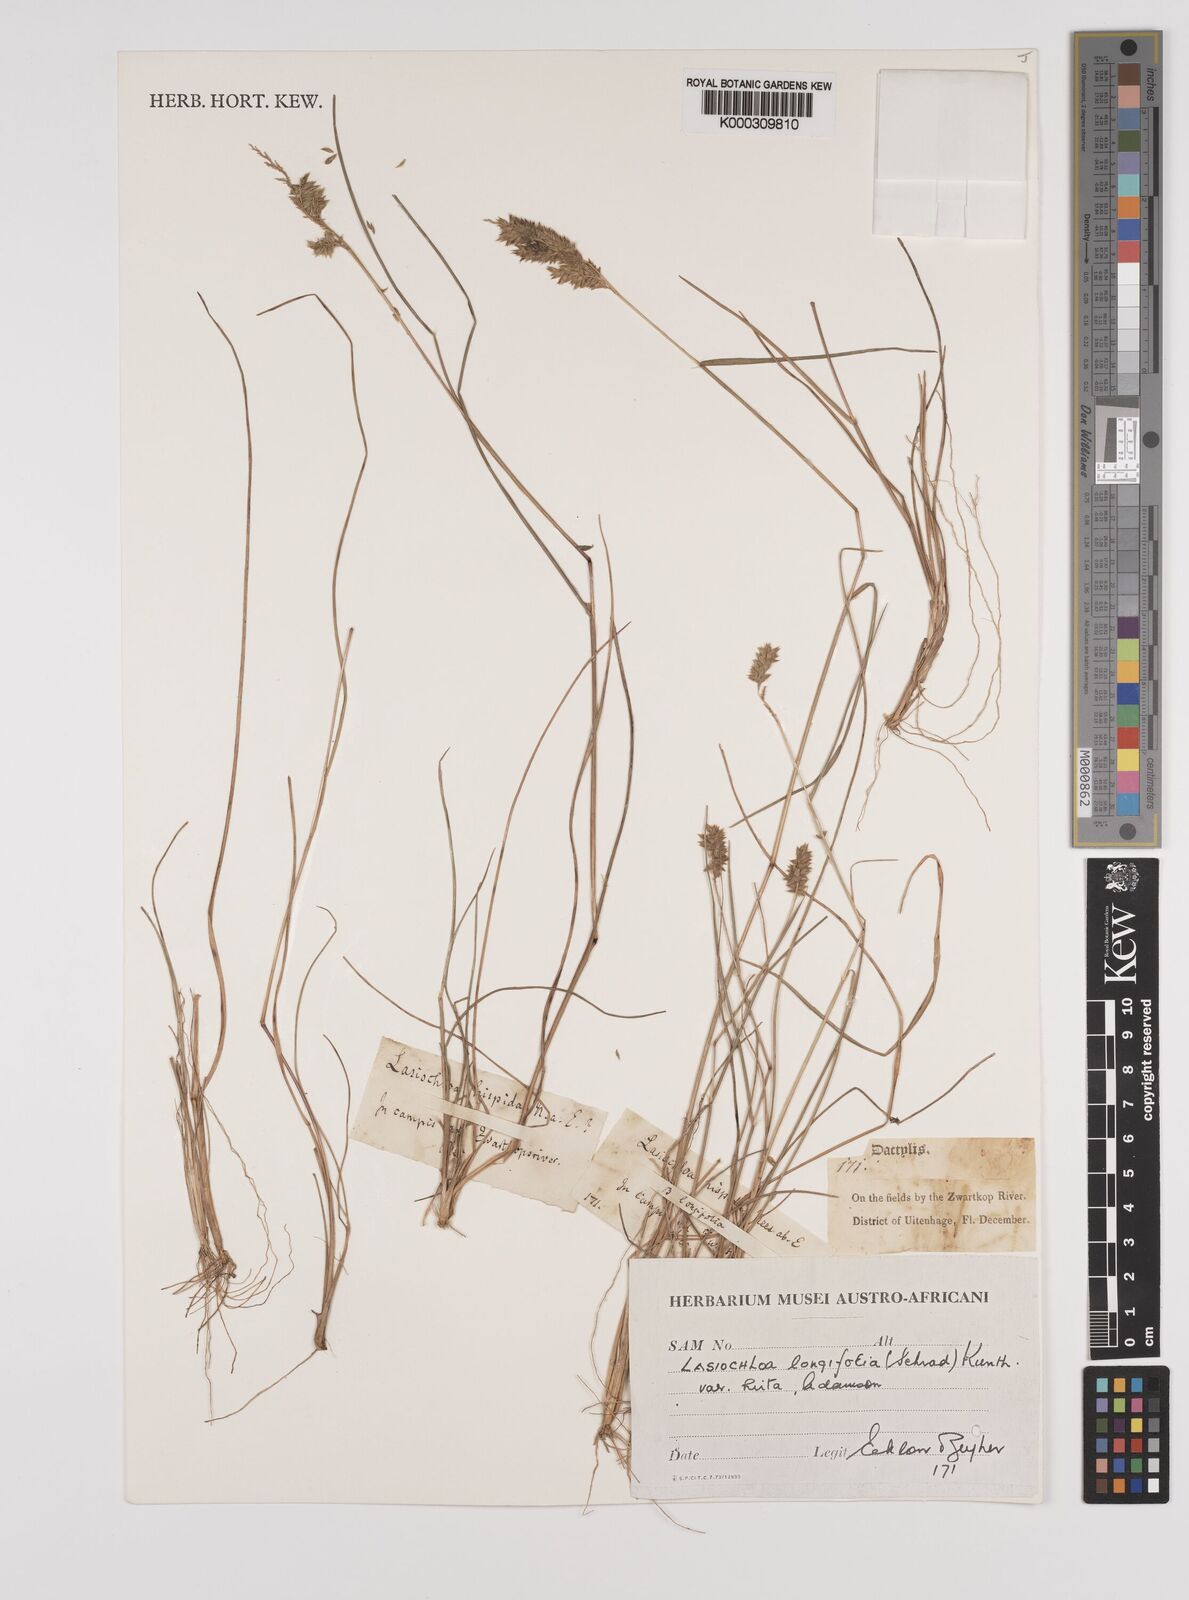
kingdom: Plantae
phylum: Tracheophyta
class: Liliopsida
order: Poales
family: Poaceae
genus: Tribolium
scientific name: Tribolium hispidum
